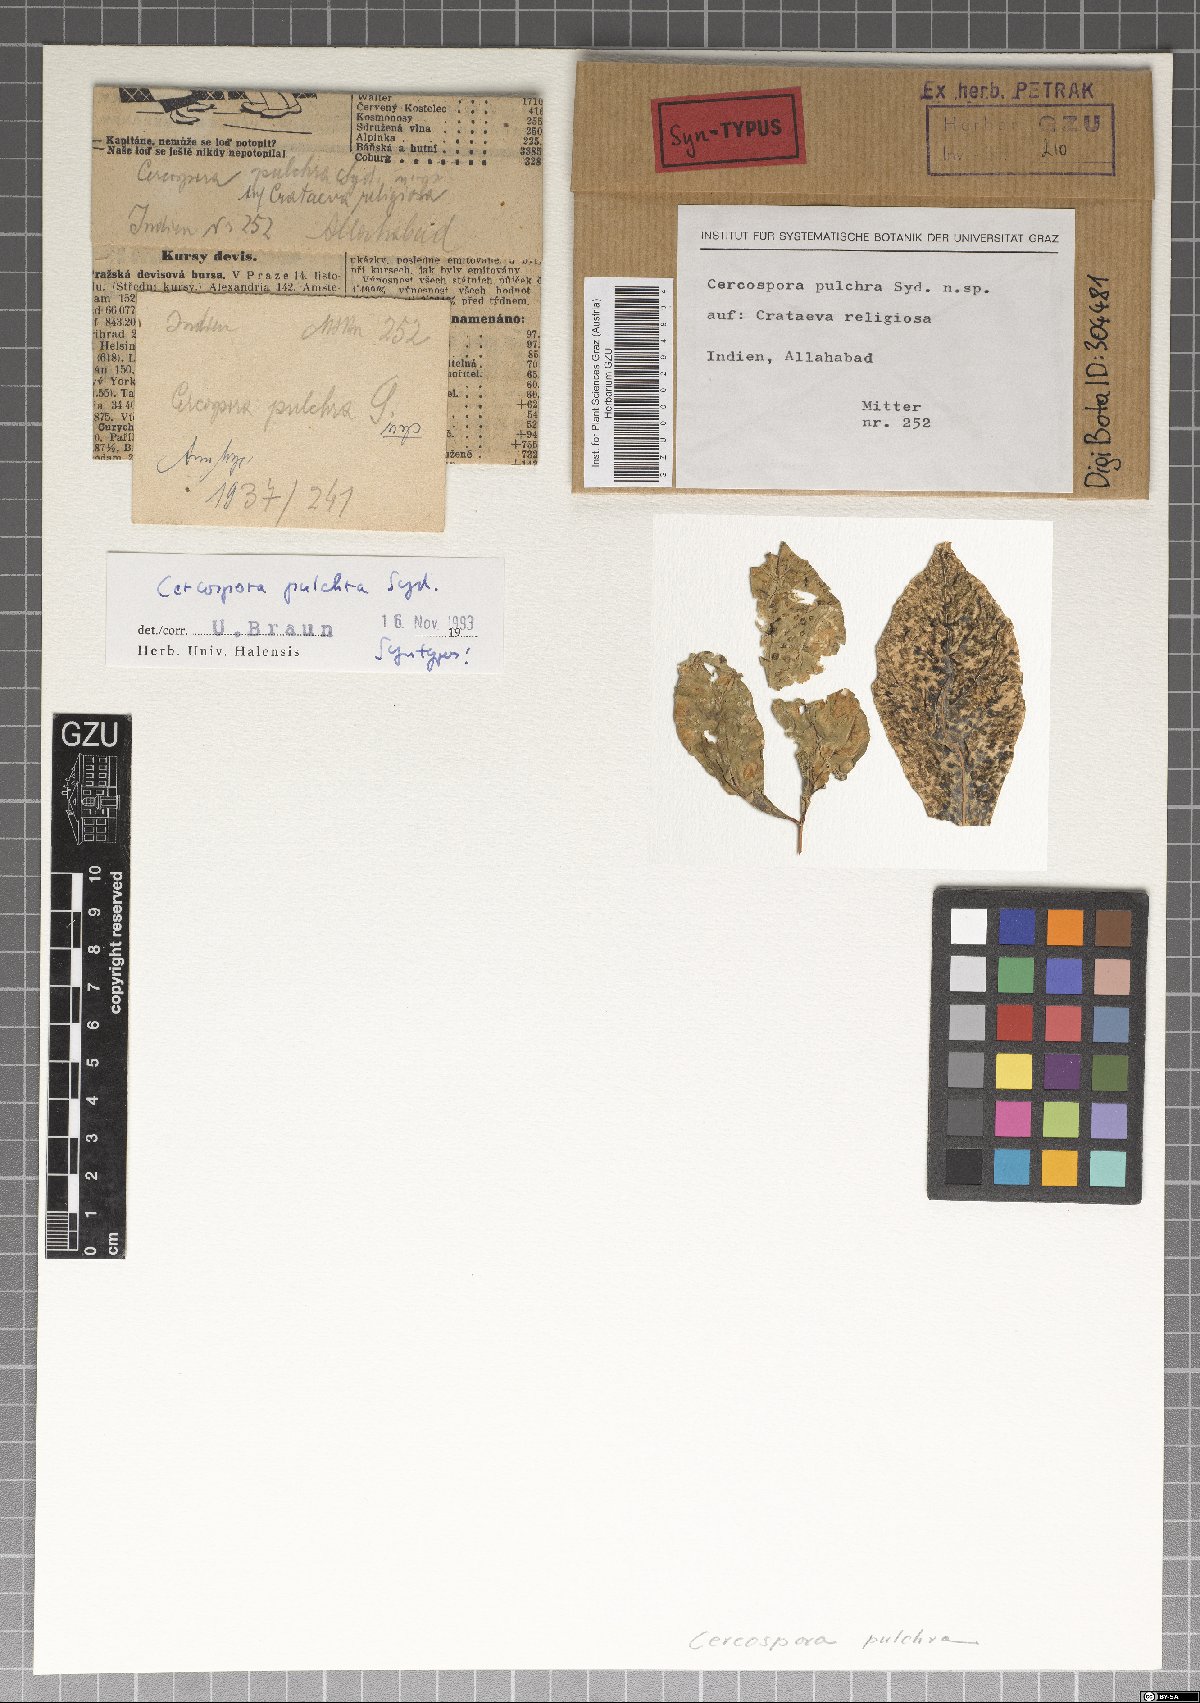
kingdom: Fungi
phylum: Ascomycota
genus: Camptomeris
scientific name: Camptomeris pulchra
